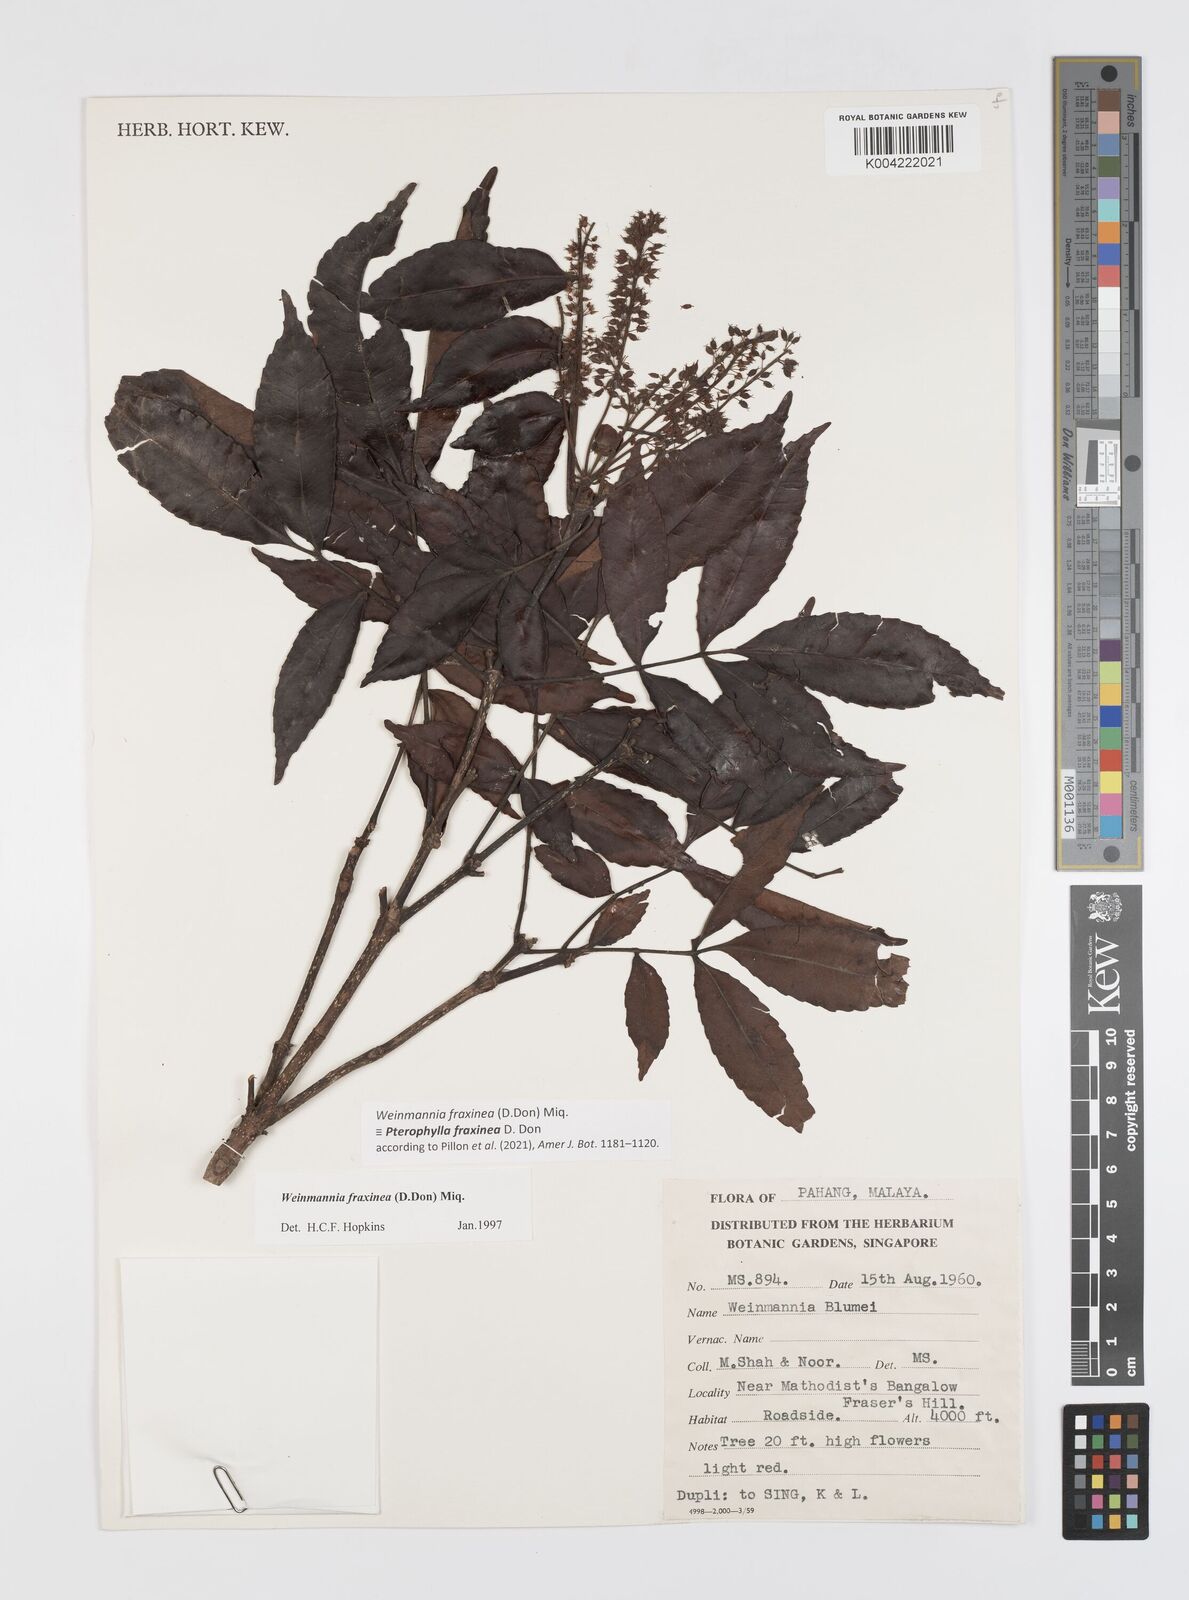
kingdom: Plantae
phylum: Tracheophyta
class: Magnoliopsida
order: Oxalidales
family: Cunoniaceae
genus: Pterophylla
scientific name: Pterophylla fraxinea
